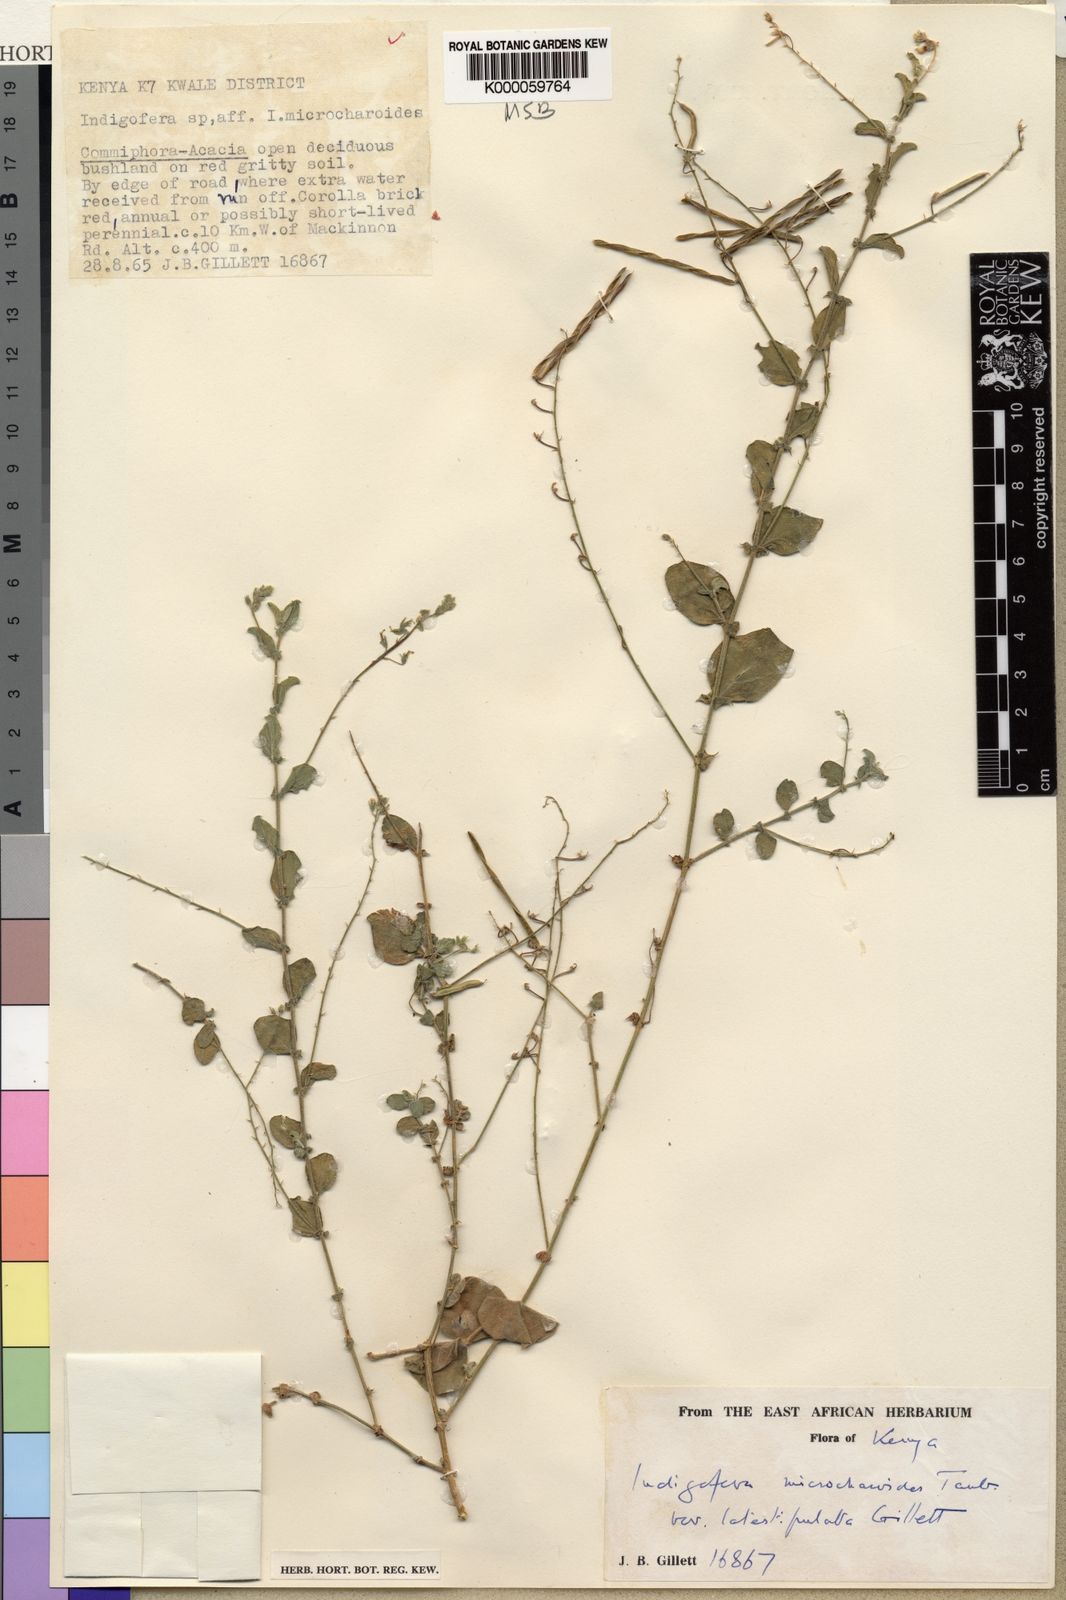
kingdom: Plantae
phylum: Tracheophyta
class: Magnoliopsida
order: Fabales
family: Fabaceae
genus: Microcharis
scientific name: Microcharis microcharoides
